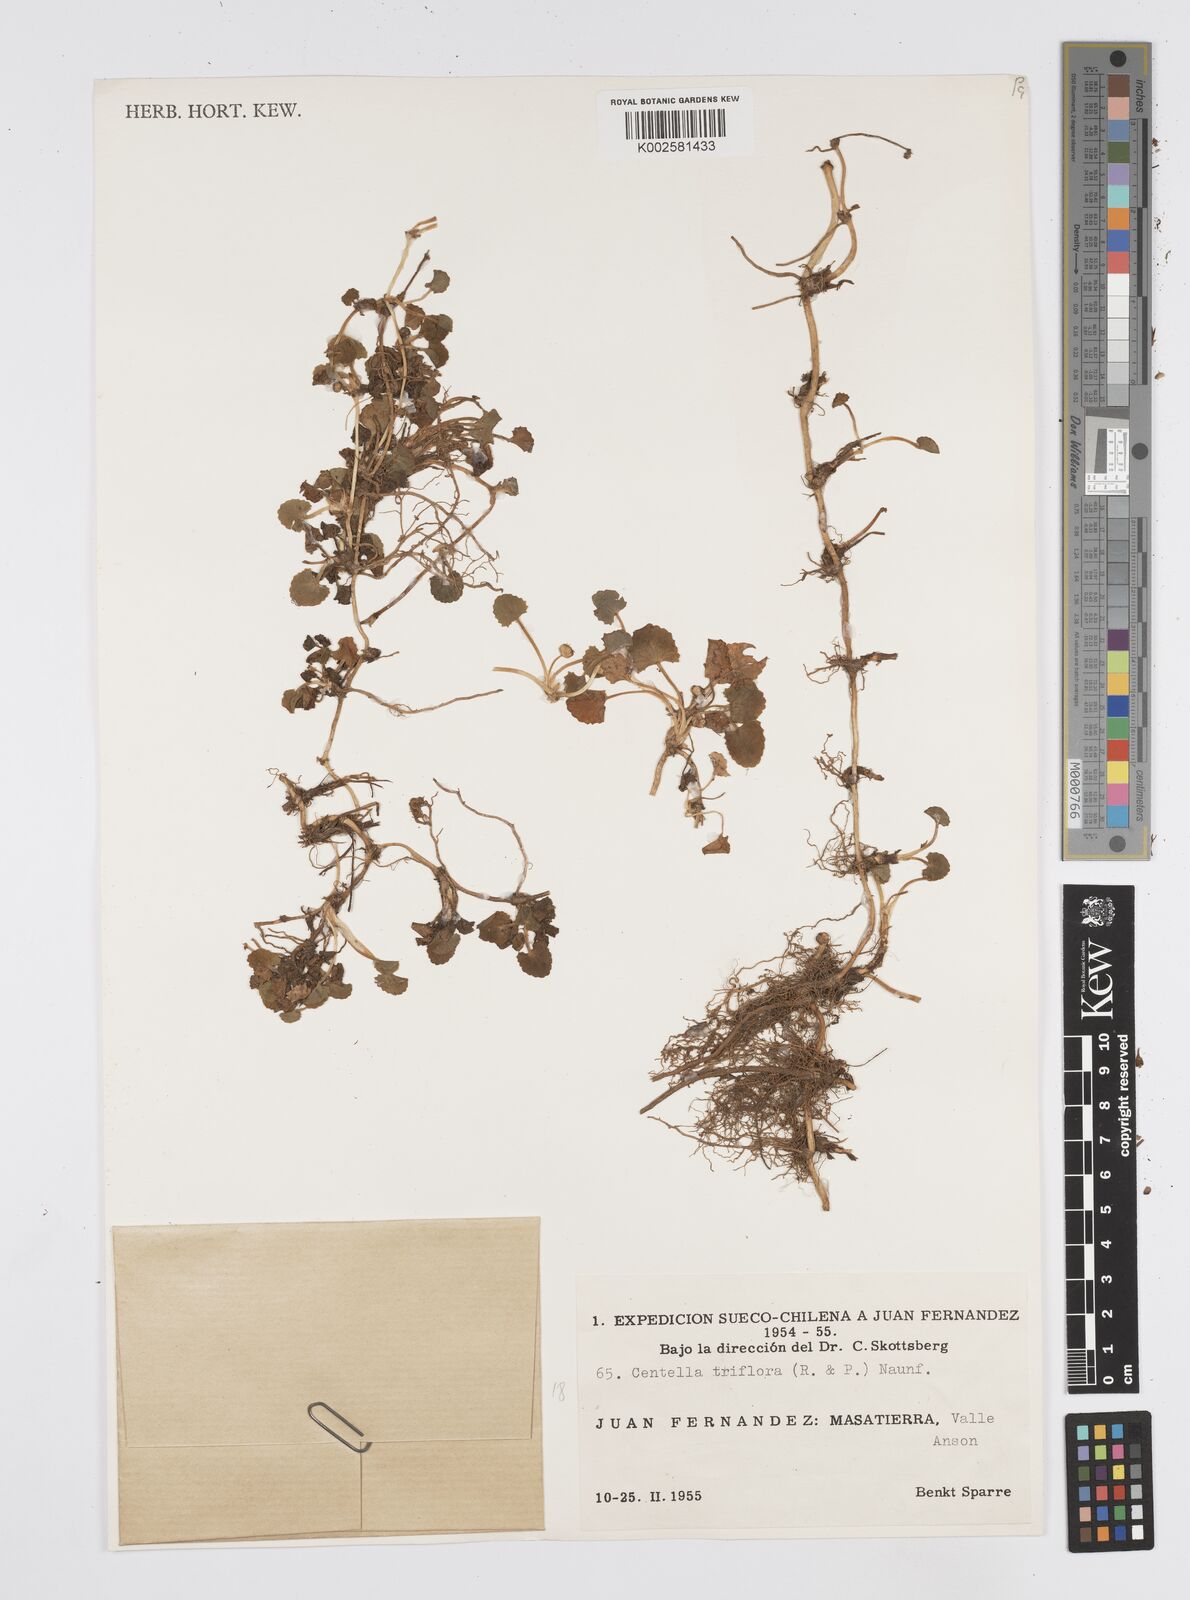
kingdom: Plantae
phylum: Tracheophyta
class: Magnoliopsida
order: Apiales
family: Apiaceae
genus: Centella
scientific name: Centella erecta
